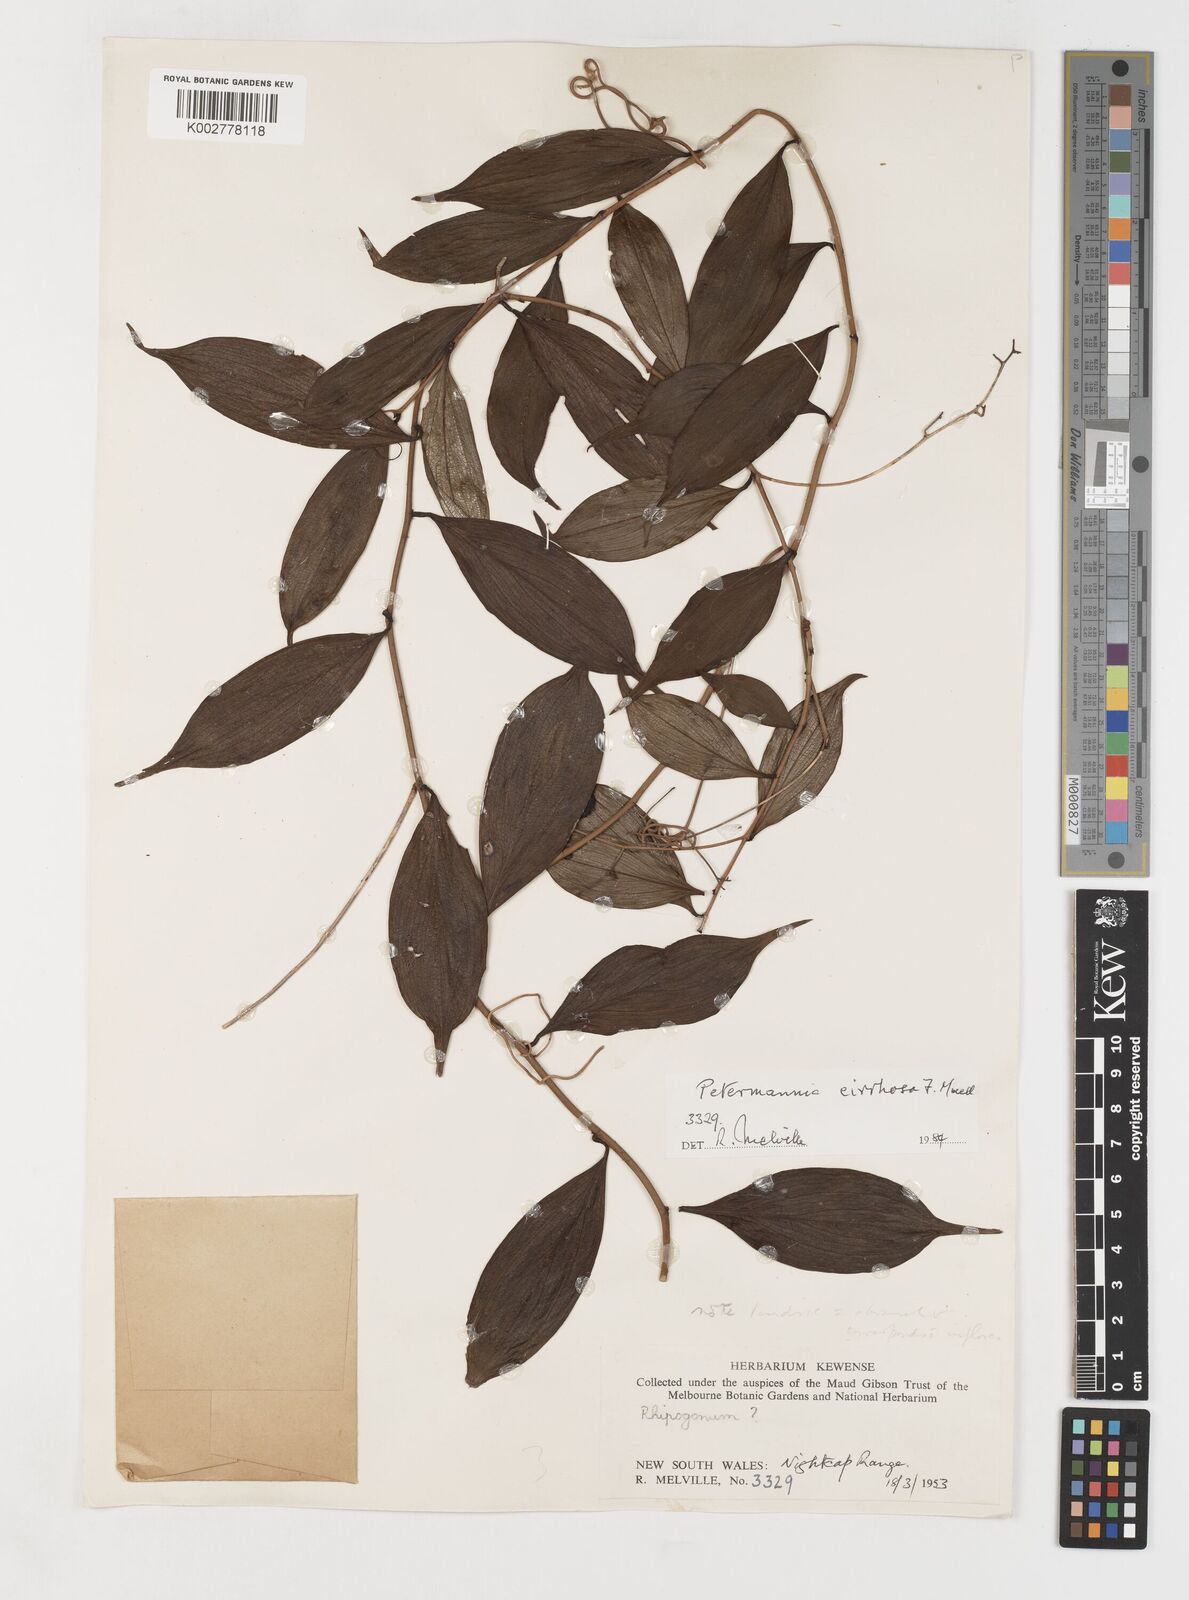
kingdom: Plantae
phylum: Tracheophyta
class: Liliopsida
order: Liliales
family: Petermanniaceae
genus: Petermannia
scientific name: Petermannia cirrosa
